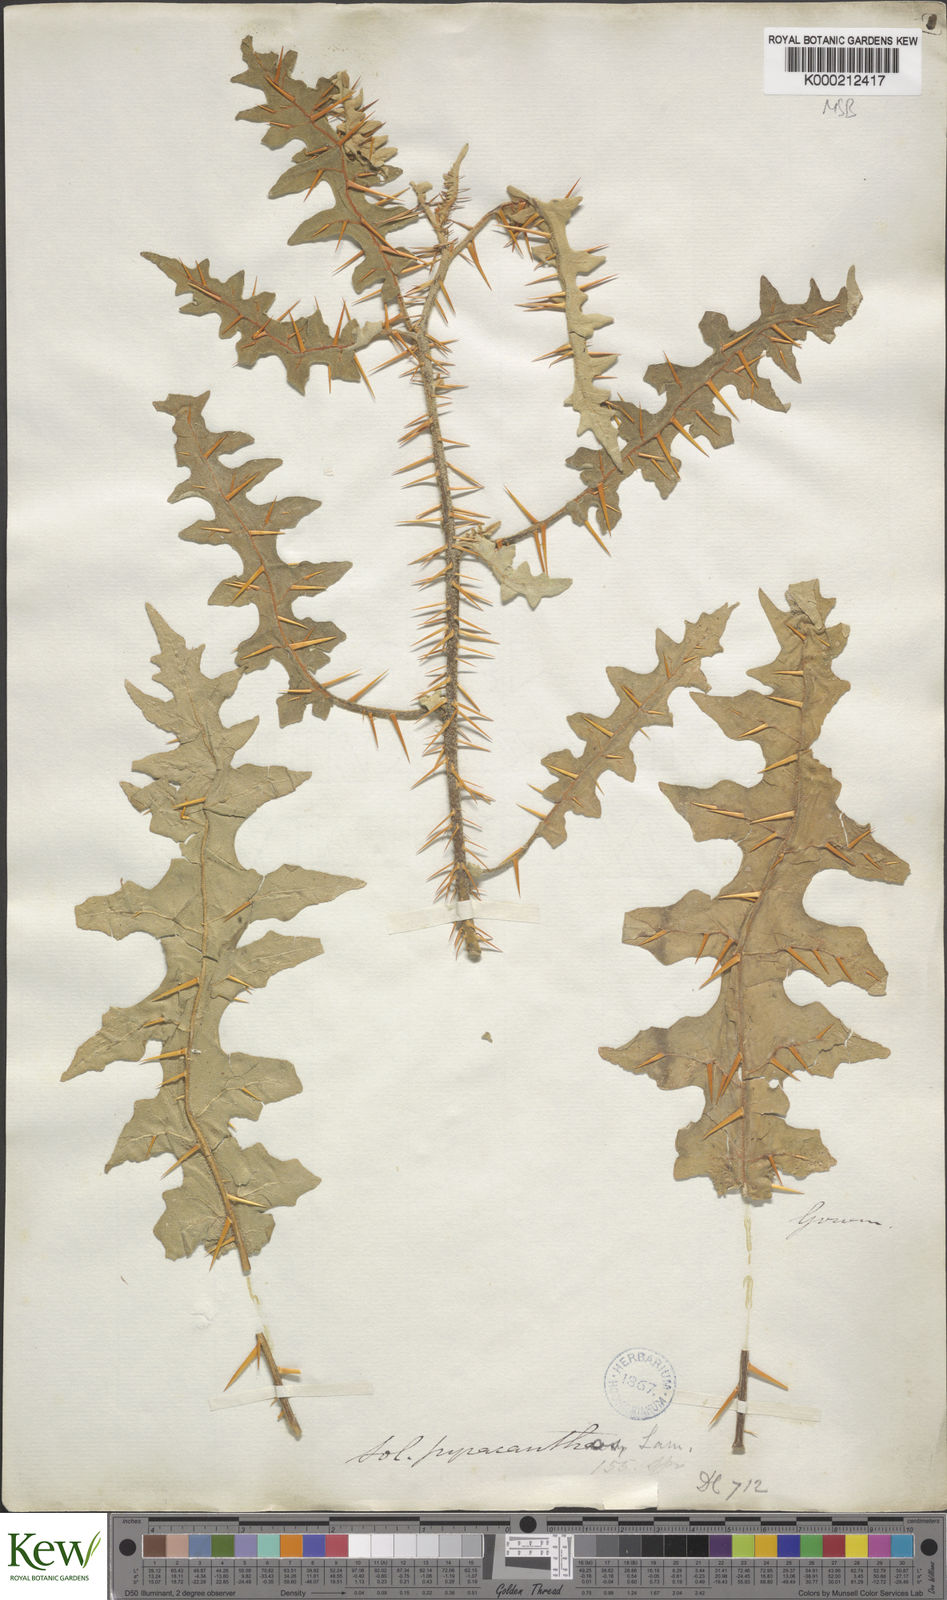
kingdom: Plantae
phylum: Tracheophyta
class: Magnoliopsida
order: Solanales
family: Solanaceae
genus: Solanum
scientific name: Solanum pyracanthos
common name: Porcupine-tomato
